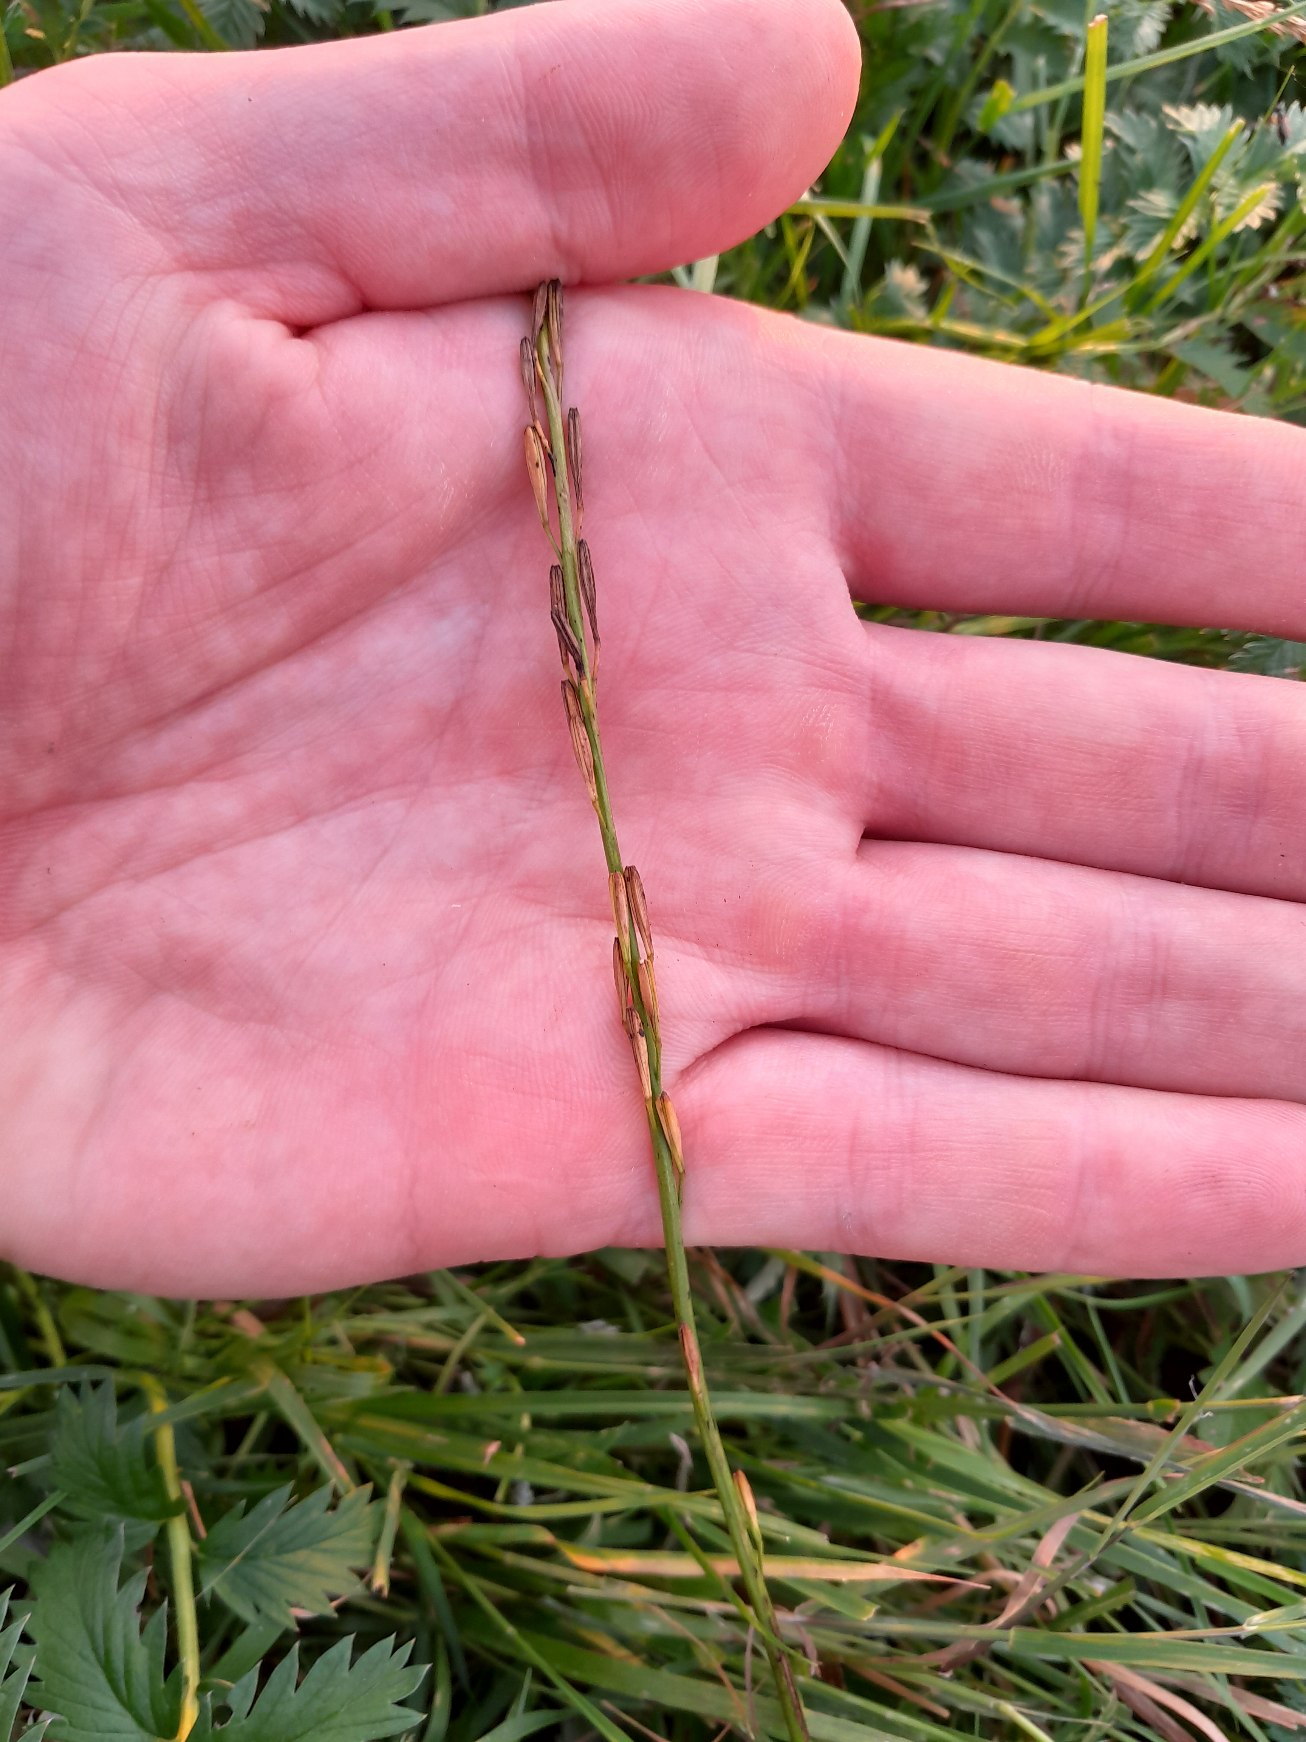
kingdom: Plantae
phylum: Tracheophyta
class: Liliopsida
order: Alismatales
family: Juncaginaceae
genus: Triglochin
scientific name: Triglochin palustris
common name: Kær-trehage
